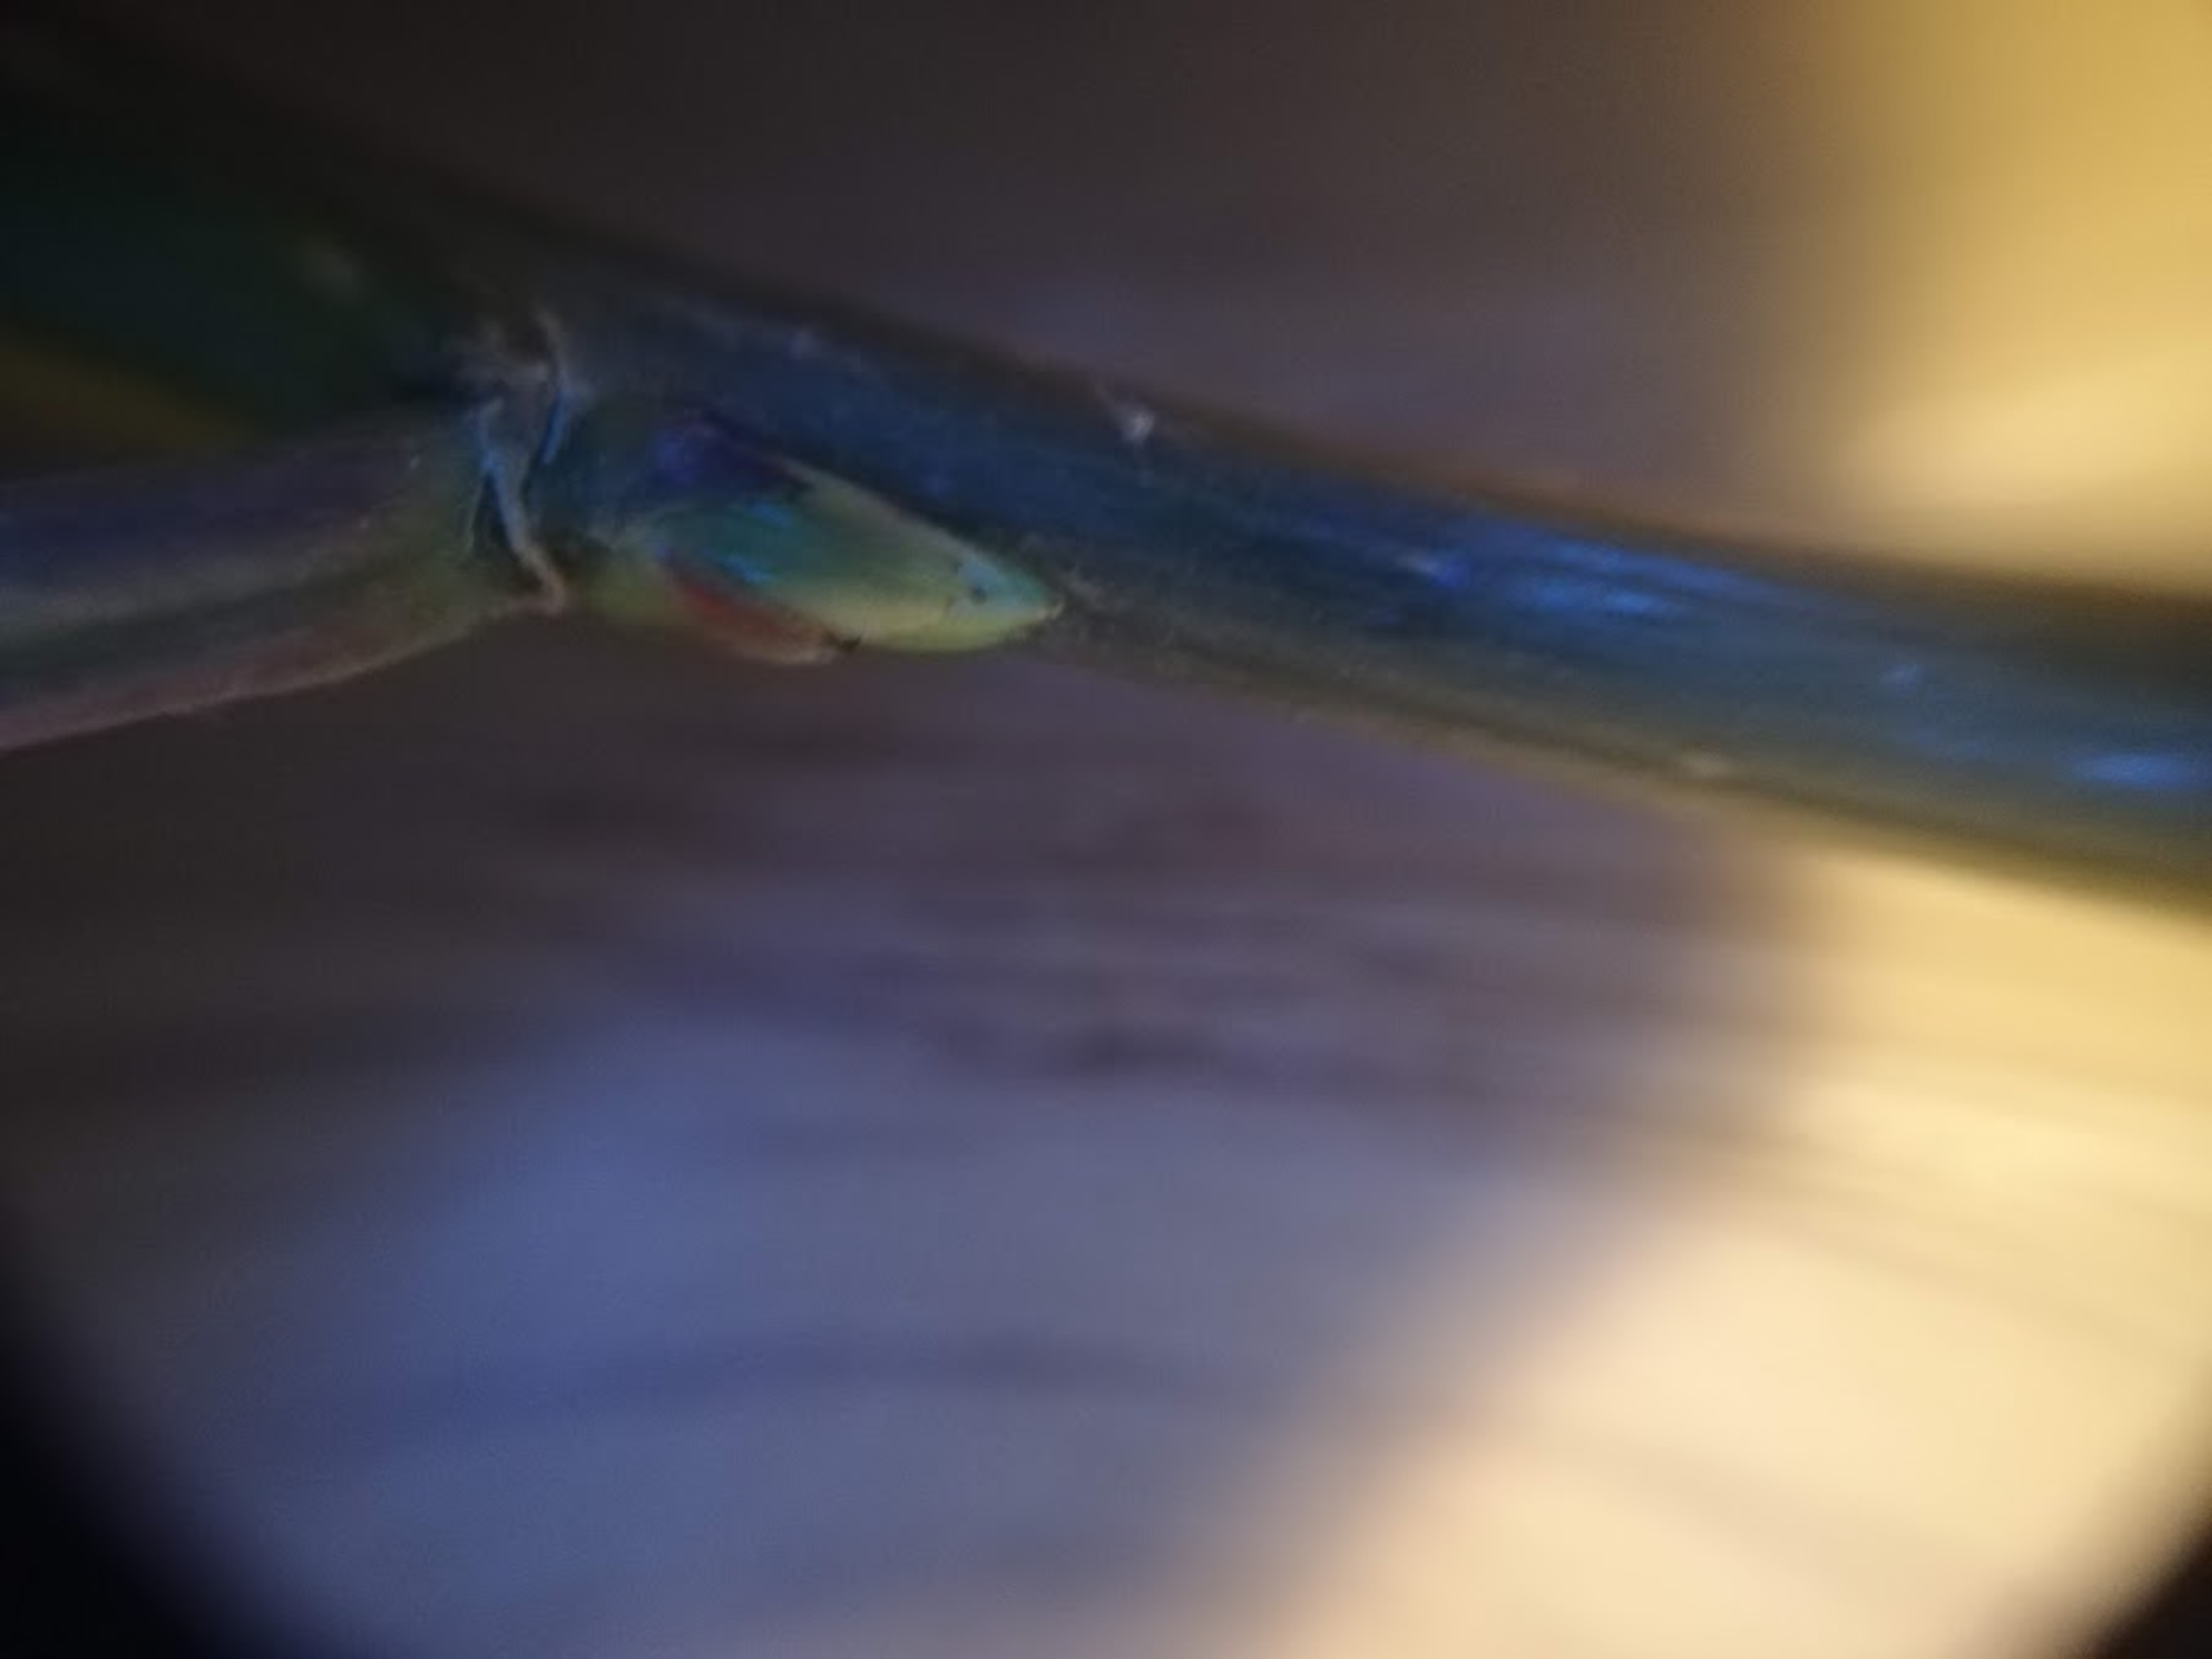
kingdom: Plantae
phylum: Tracheophyta
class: Magnoliopsida
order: Rosales
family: Rosaceae
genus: Prunus
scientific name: Prunus padus
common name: Almindelig hæg
